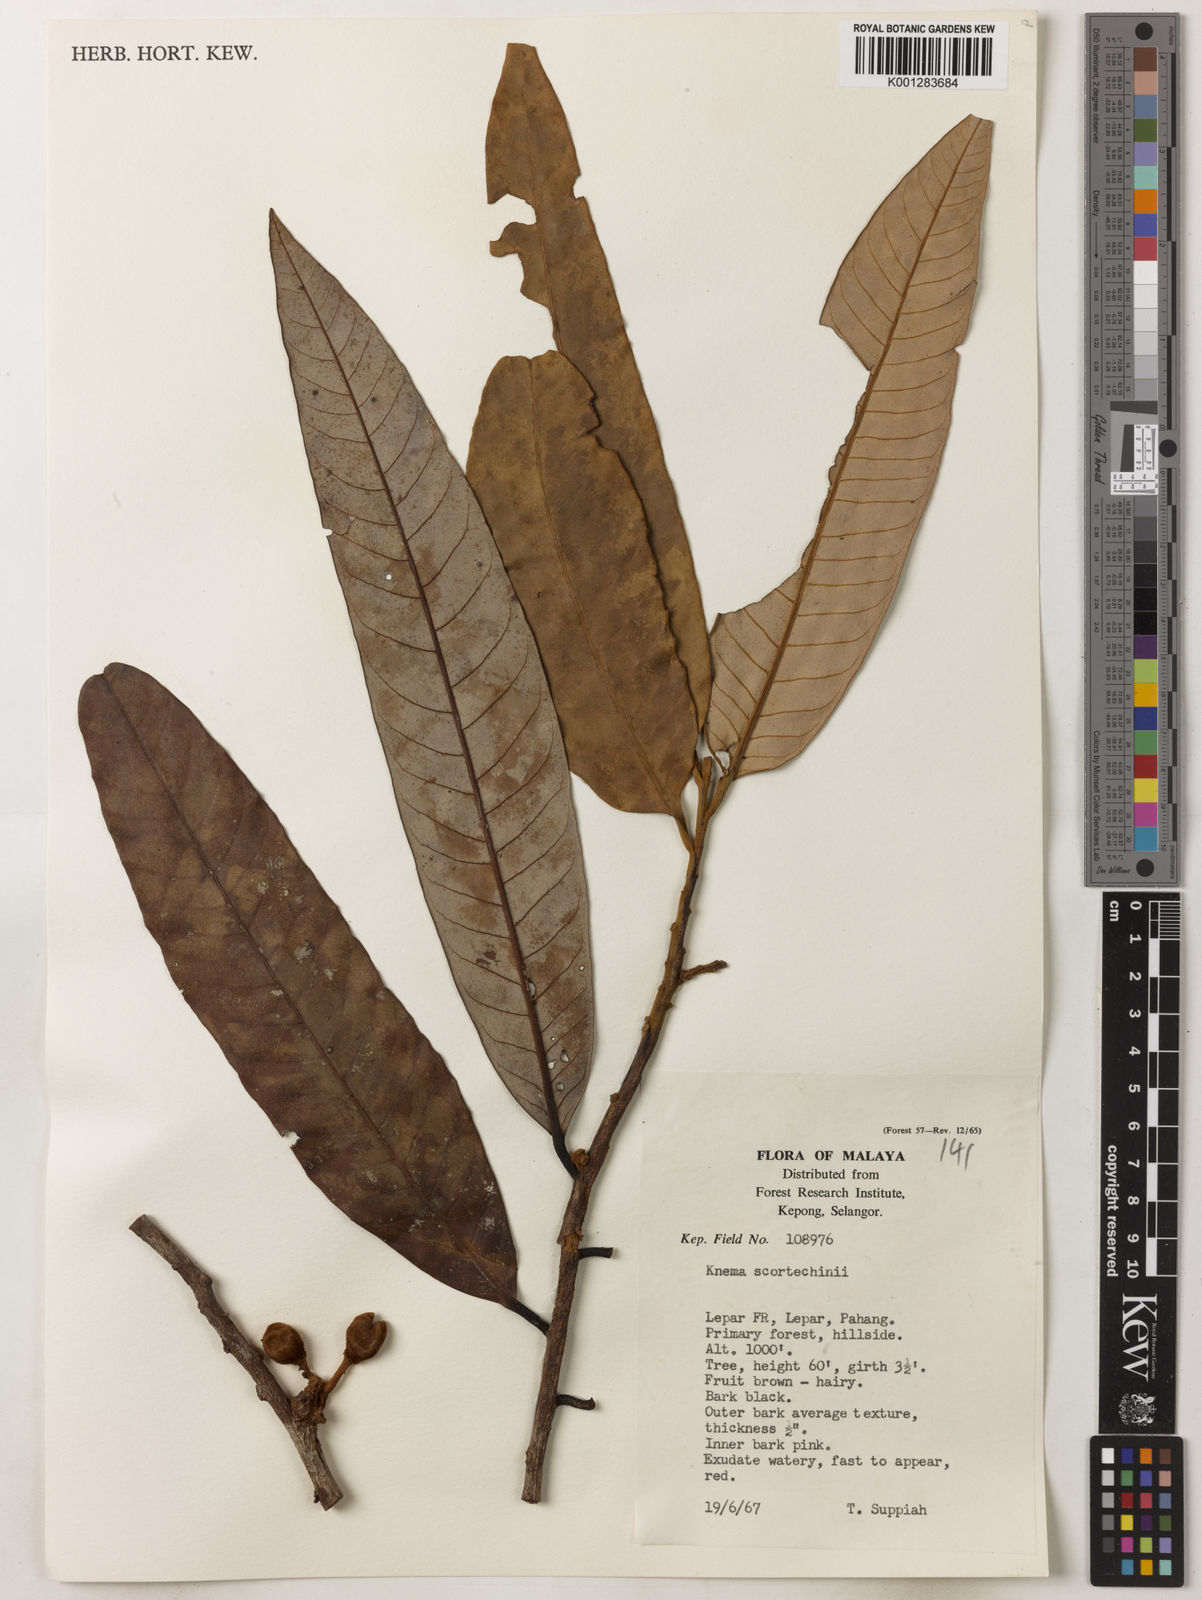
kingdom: Plantae
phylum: Tracheophyta
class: Magnoliopsida
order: Magnoliales
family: Myristicaceae
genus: Knema
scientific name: Knema scortechinii
